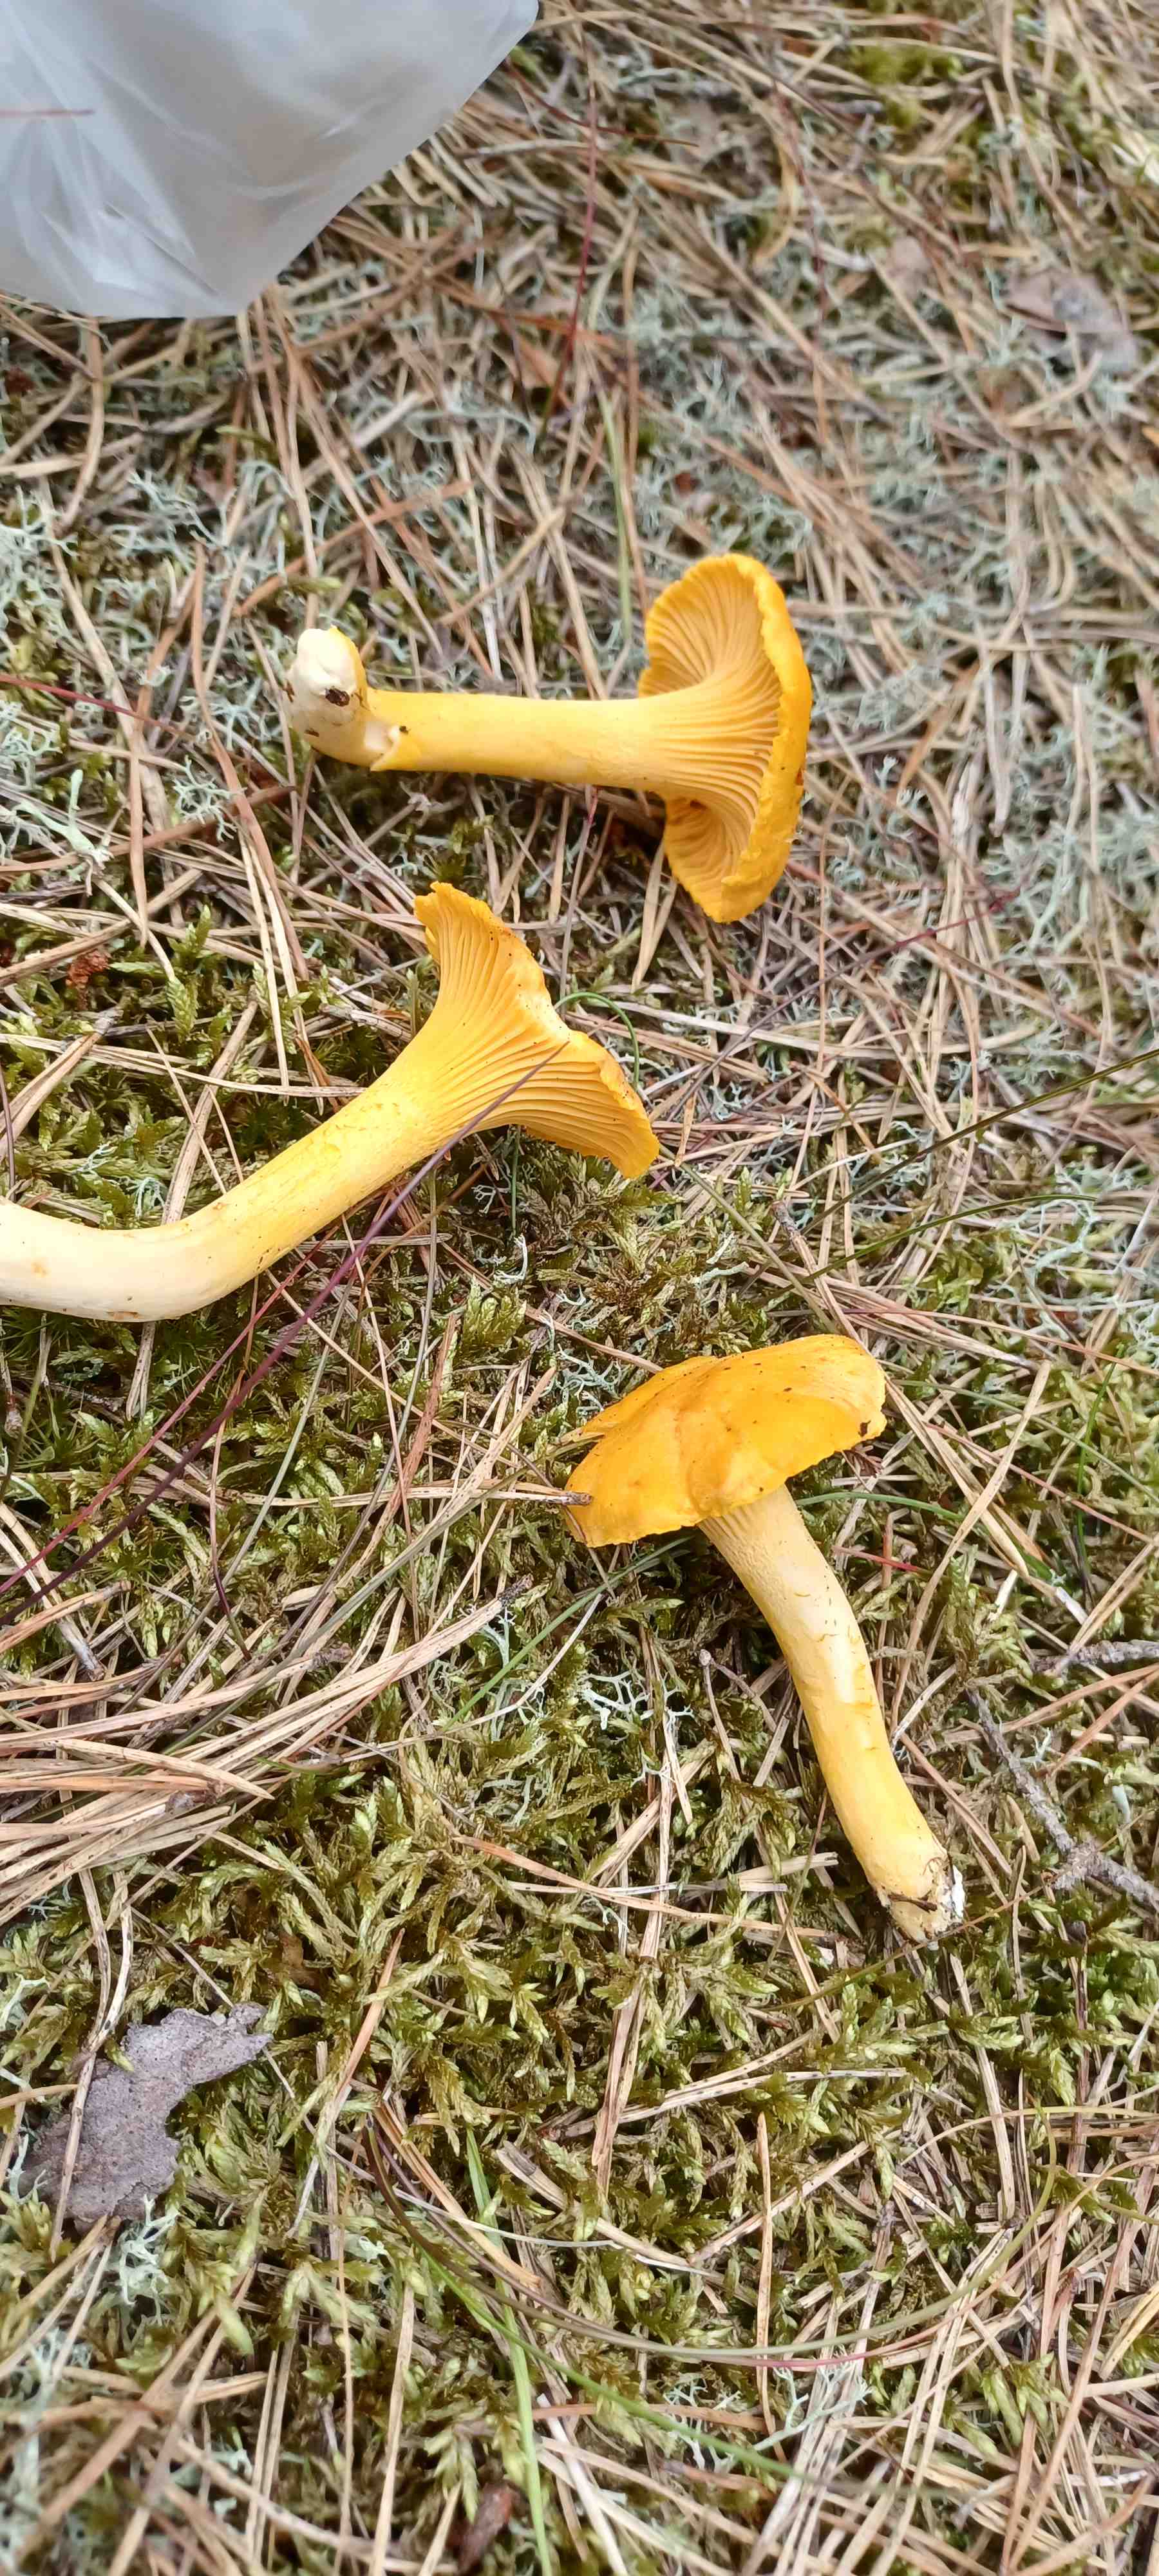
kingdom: Fungi
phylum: Basidiomycota
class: Agaricomycetes
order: Cantharellales
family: Hydnaceae
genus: Cantharellus
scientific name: Cantharellus cibarius
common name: almindelig kantarel
